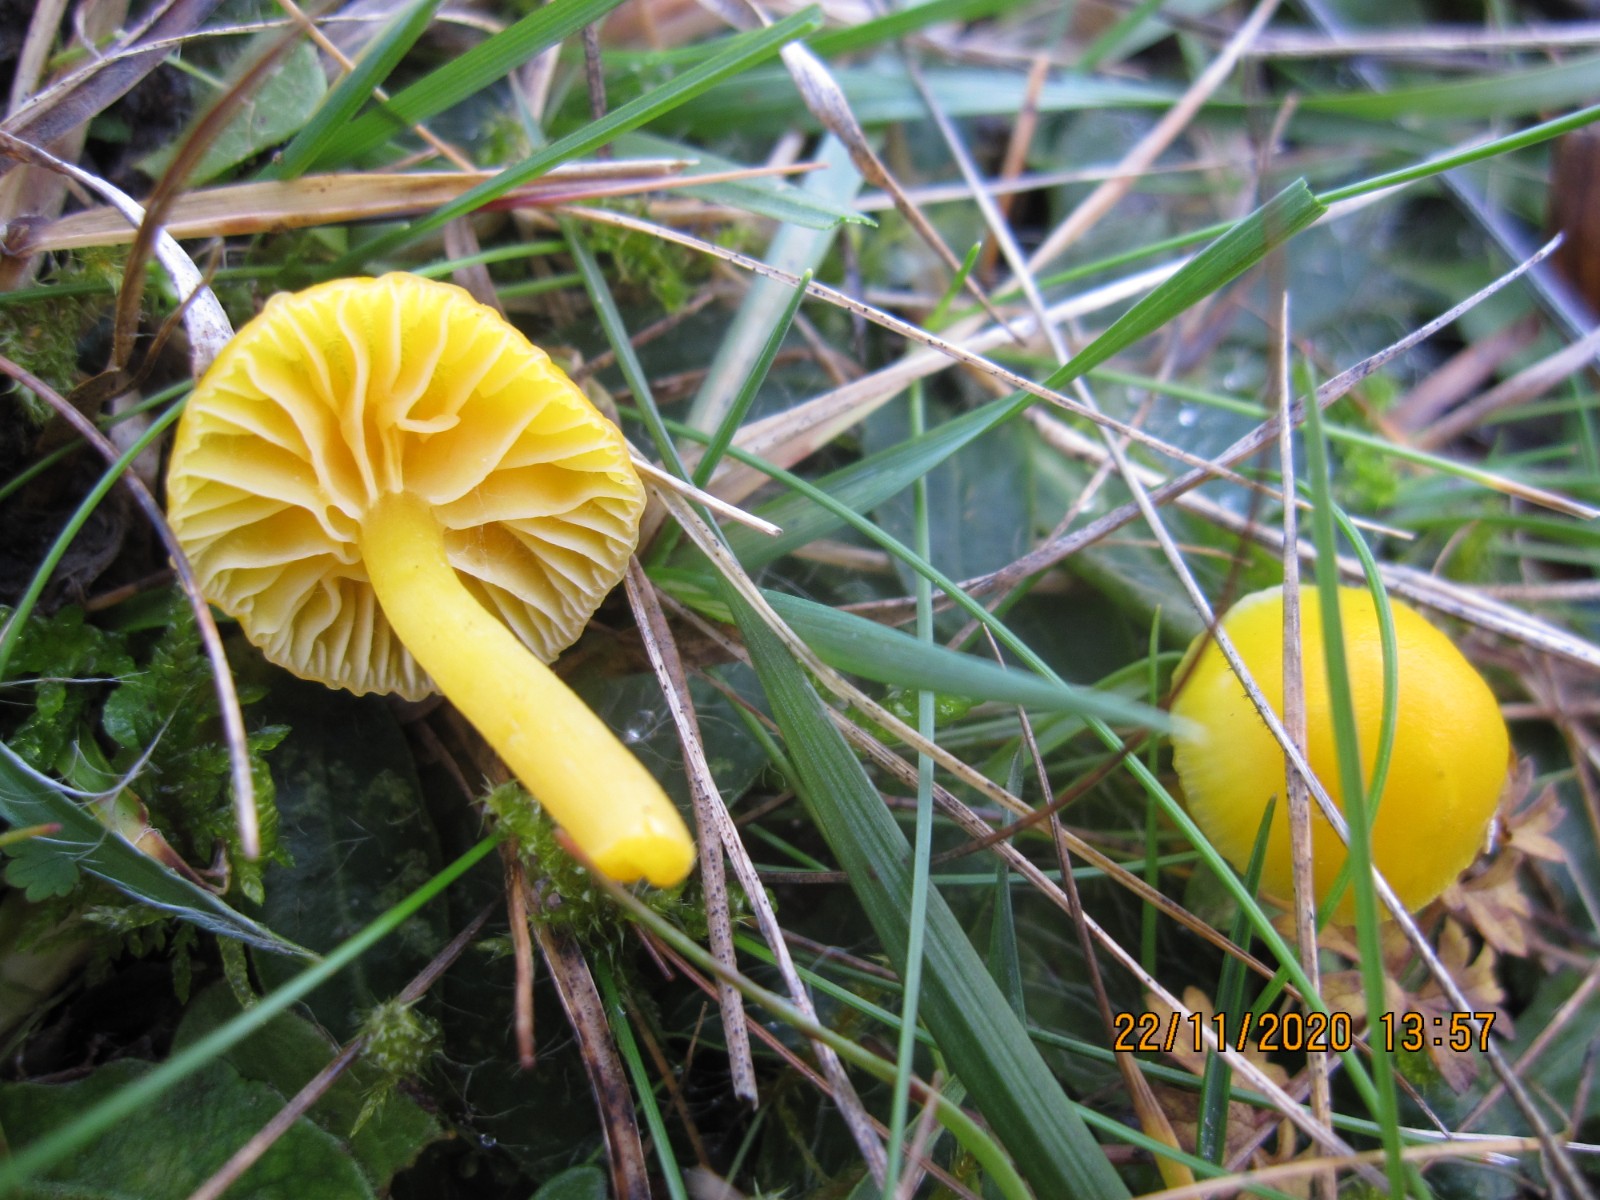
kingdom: Fungi
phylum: Basidiomycota
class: Agaricomycetes
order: Agaricales
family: Hygrophoraceae
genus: Hygrocybe
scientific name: Hygrocybe ceracea
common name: voksgul vokshat
